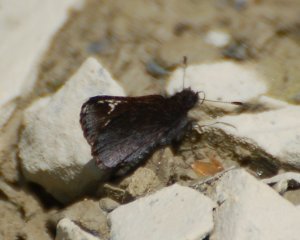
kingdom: Animalia
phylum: Arthropoda
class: Insecta
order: Lepidoptera
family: Hesperiidae
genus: Mastor
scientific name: Mastor vialis
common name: Common Roadside-Skipper
